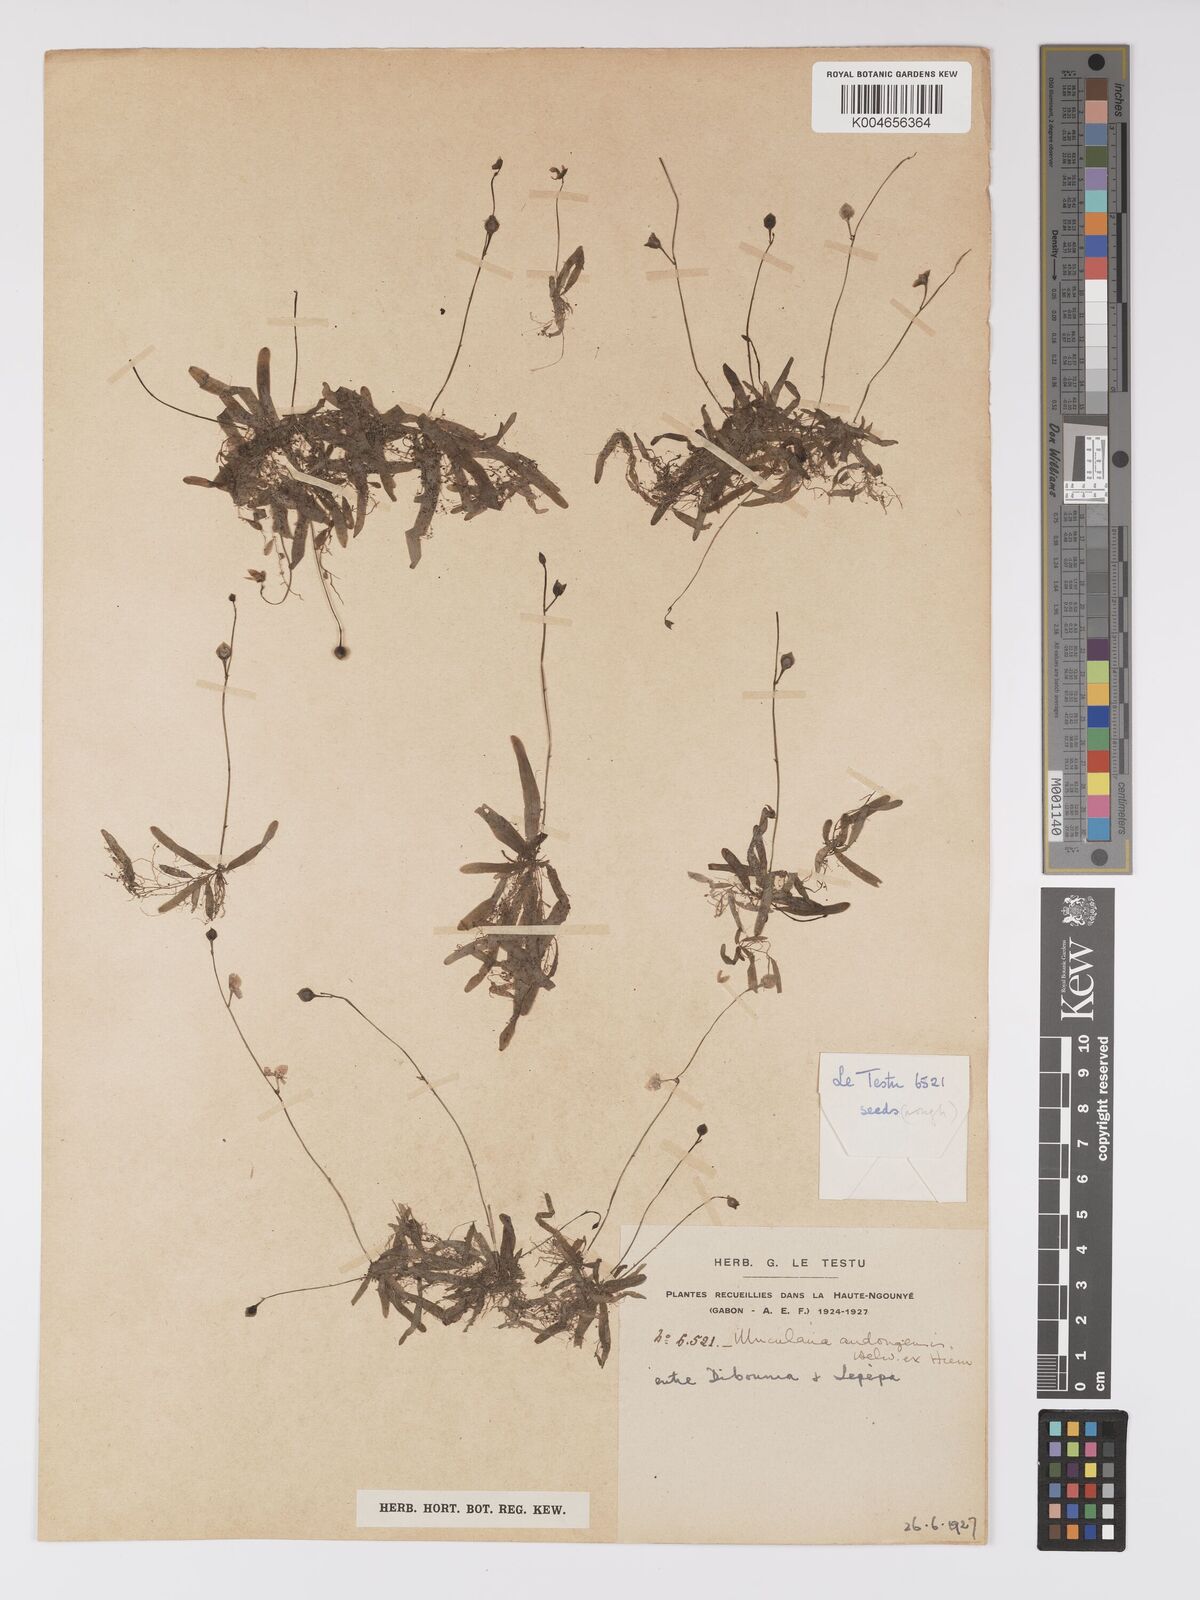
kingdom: Plantae
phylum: Tracheophyta
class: Magnoliopsida
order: Lamiales
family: Lentibulariaceae
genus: Utricularia
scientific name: Utricularia andongensis
